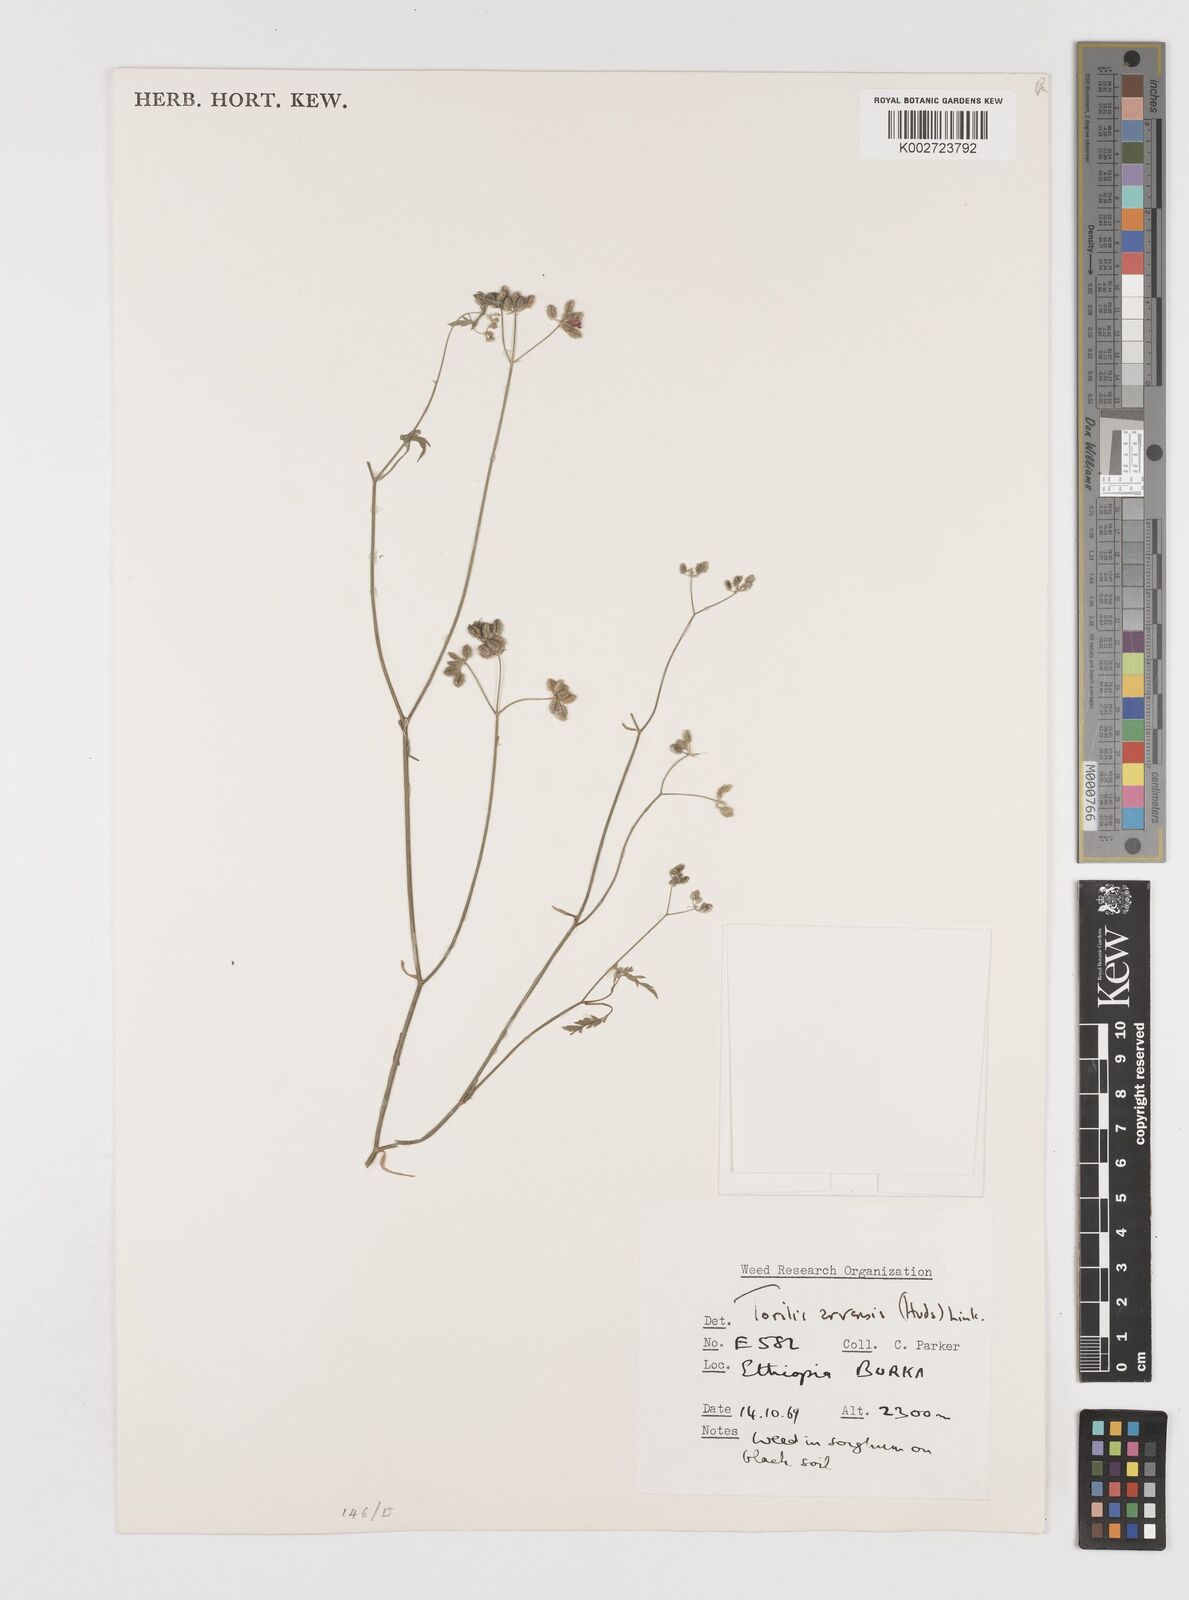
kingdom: Plantae
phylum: Tracheophyta
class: Magnoliopsida
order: Apiales
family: Apiaceae
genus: Torilis
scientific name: Torilis arvensis
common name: Spreading hedge-parsley
